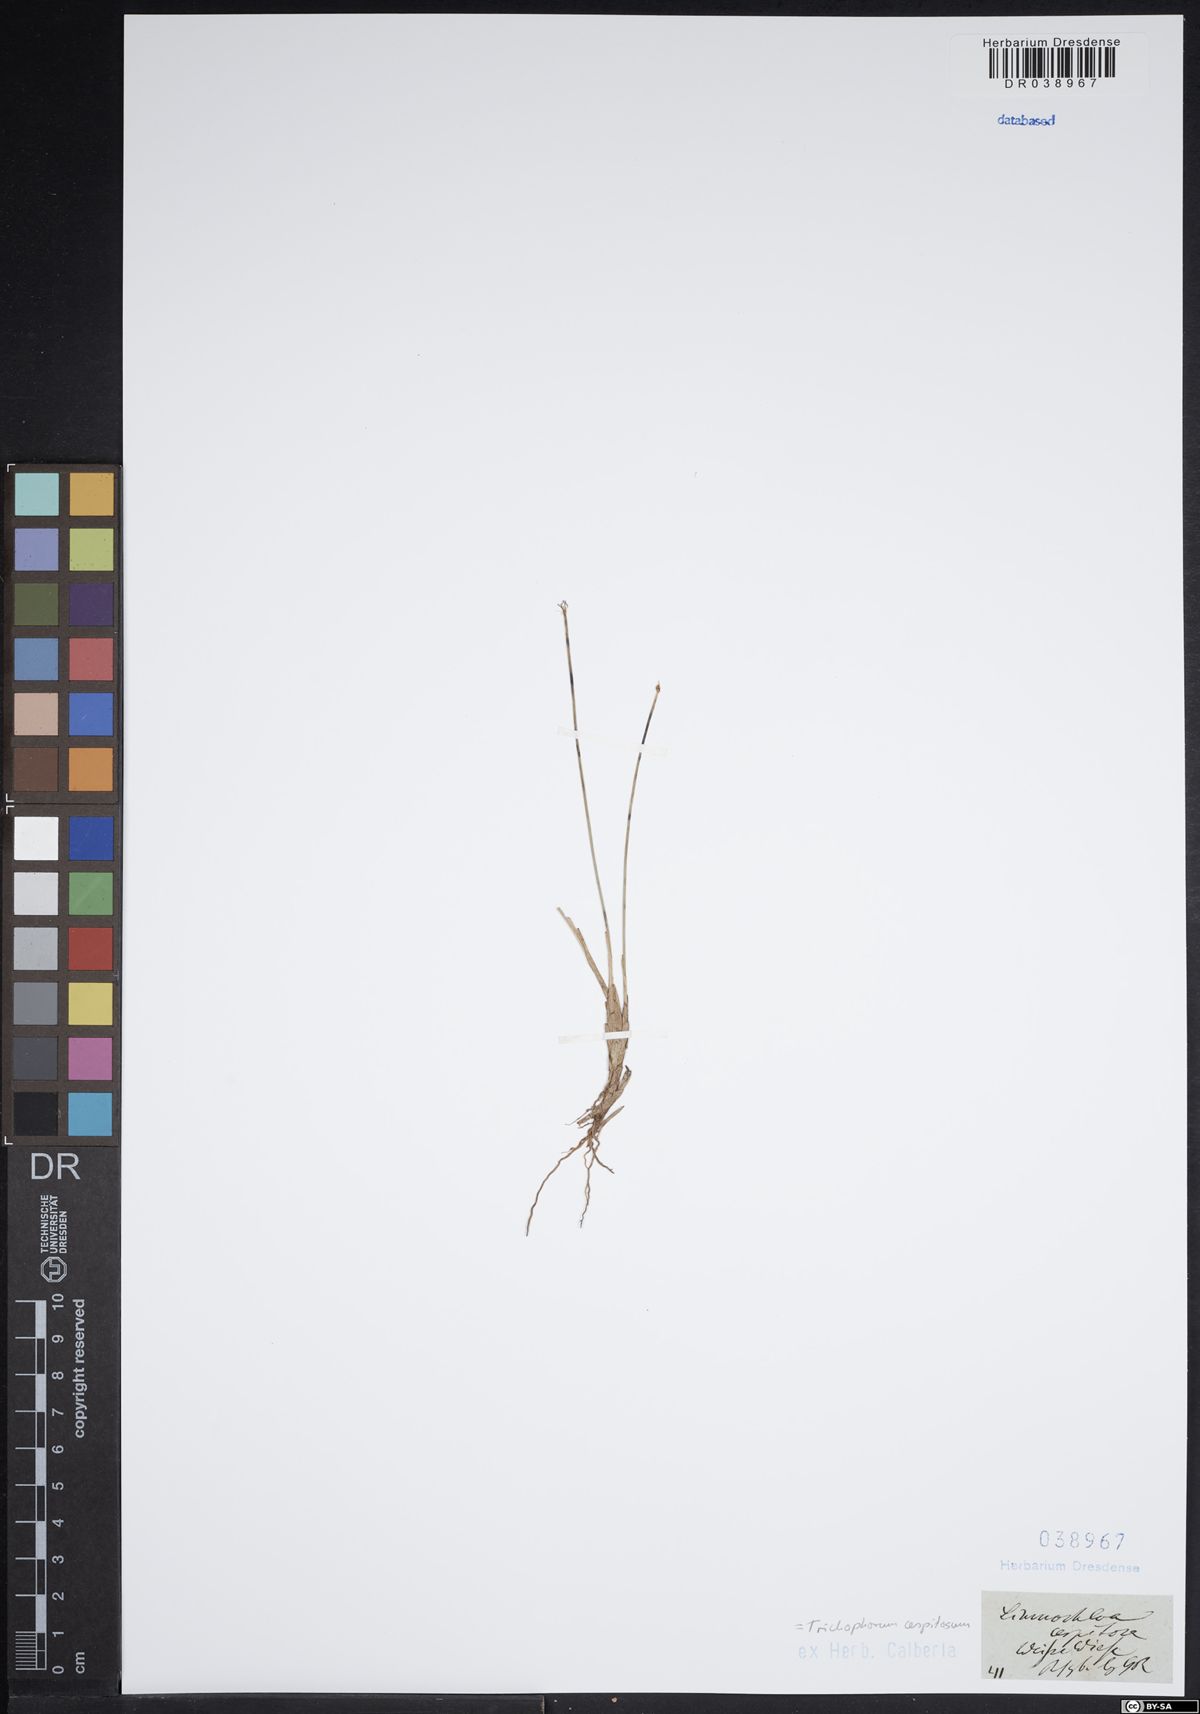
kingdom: Plantae
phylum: Tracheophyta
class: Liliopsida
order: Poales
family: Cyperaceae
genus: Trichophorum
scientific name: Trichophorum cespitosum
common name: Cespitose bulrush
